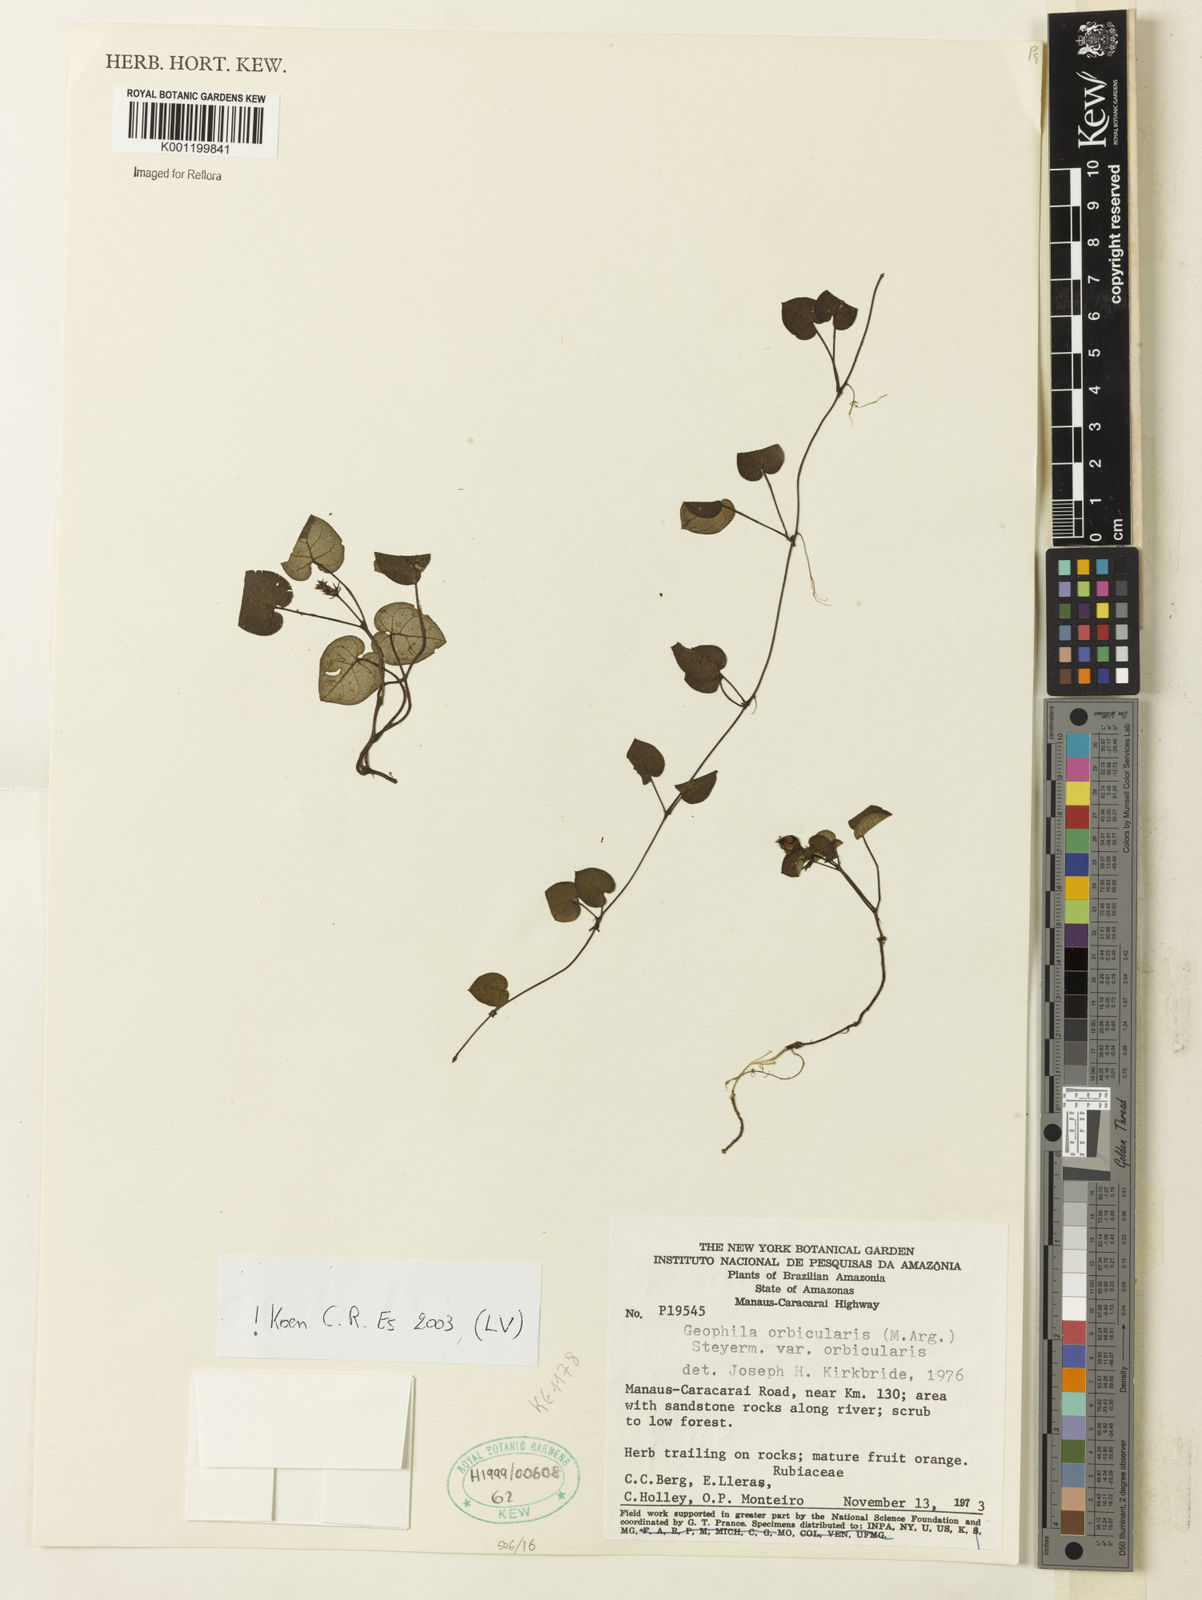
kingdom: Plantae
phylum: Tracheophyta
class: Magnoliopsida
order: Gentianales
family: Rubiaceae
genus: Geophila
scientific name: Geophila orbicularis
